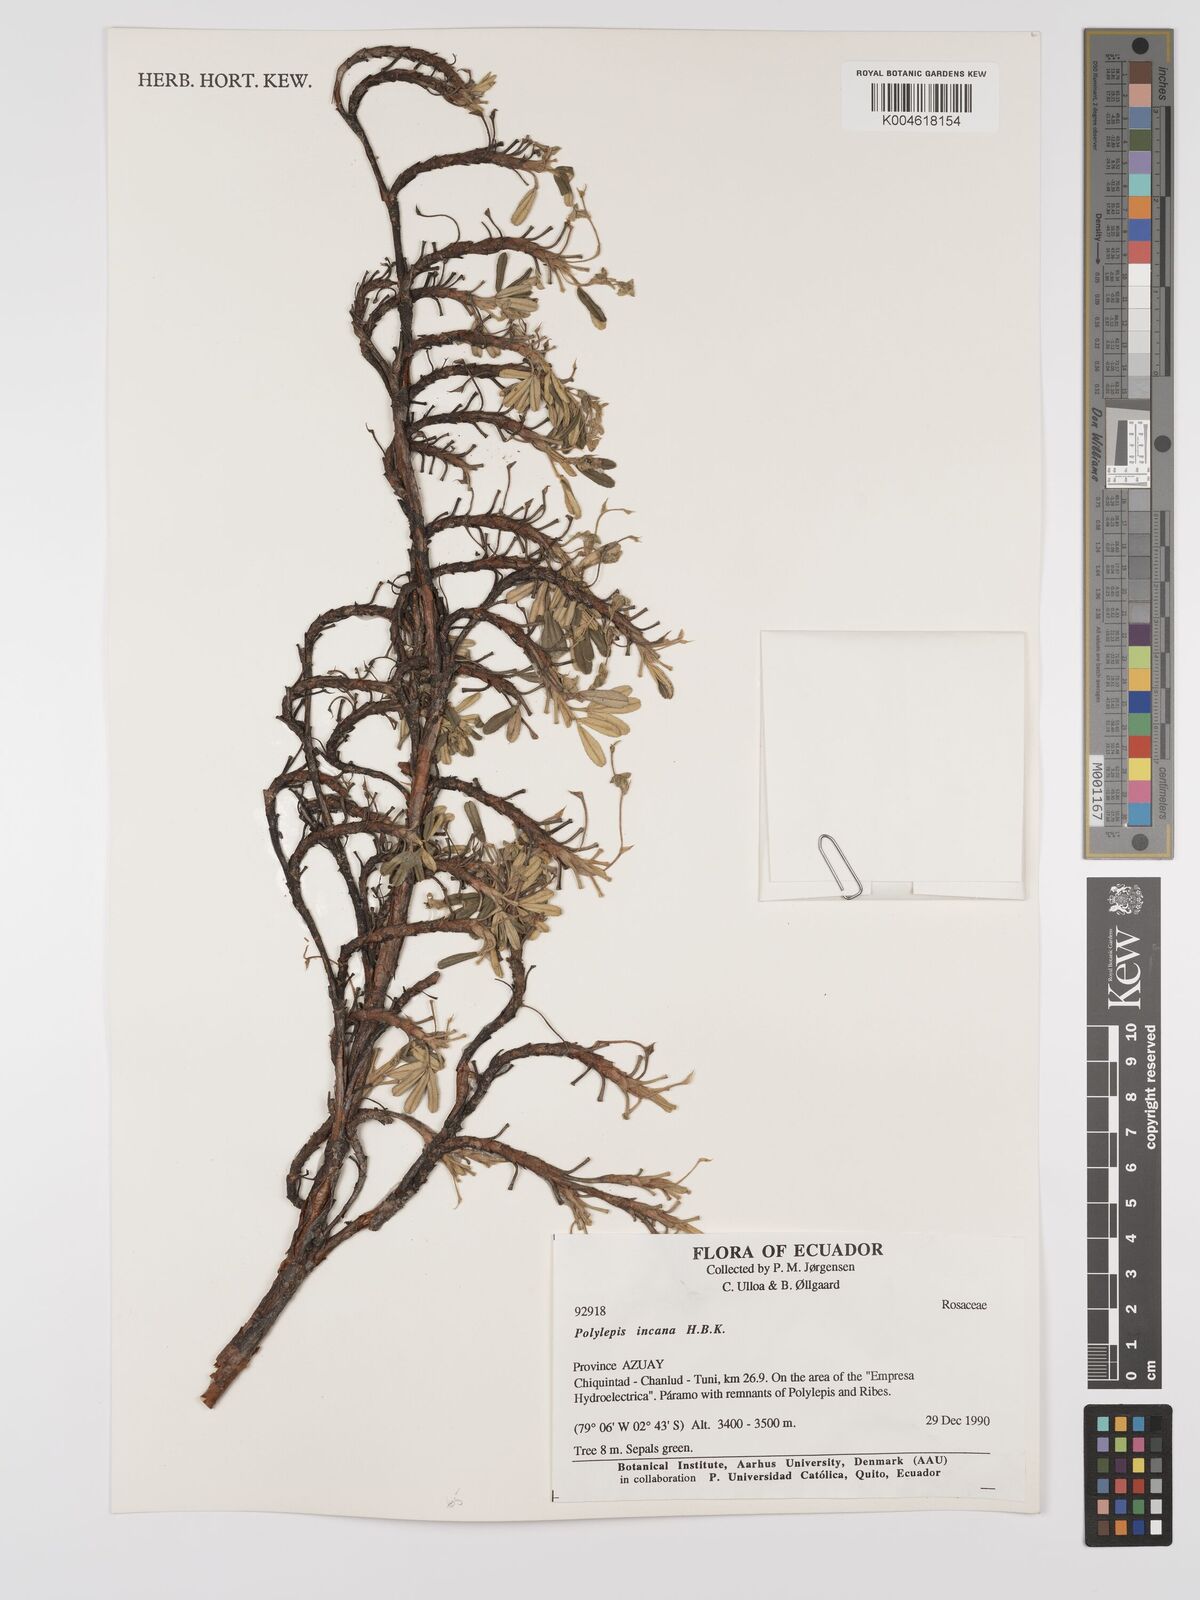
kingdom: Plantae
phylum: Tracheophyta
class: Magnoliopsida
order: Rosales
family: Rosaceae
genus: Polylepis
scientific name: Polylepis incana
